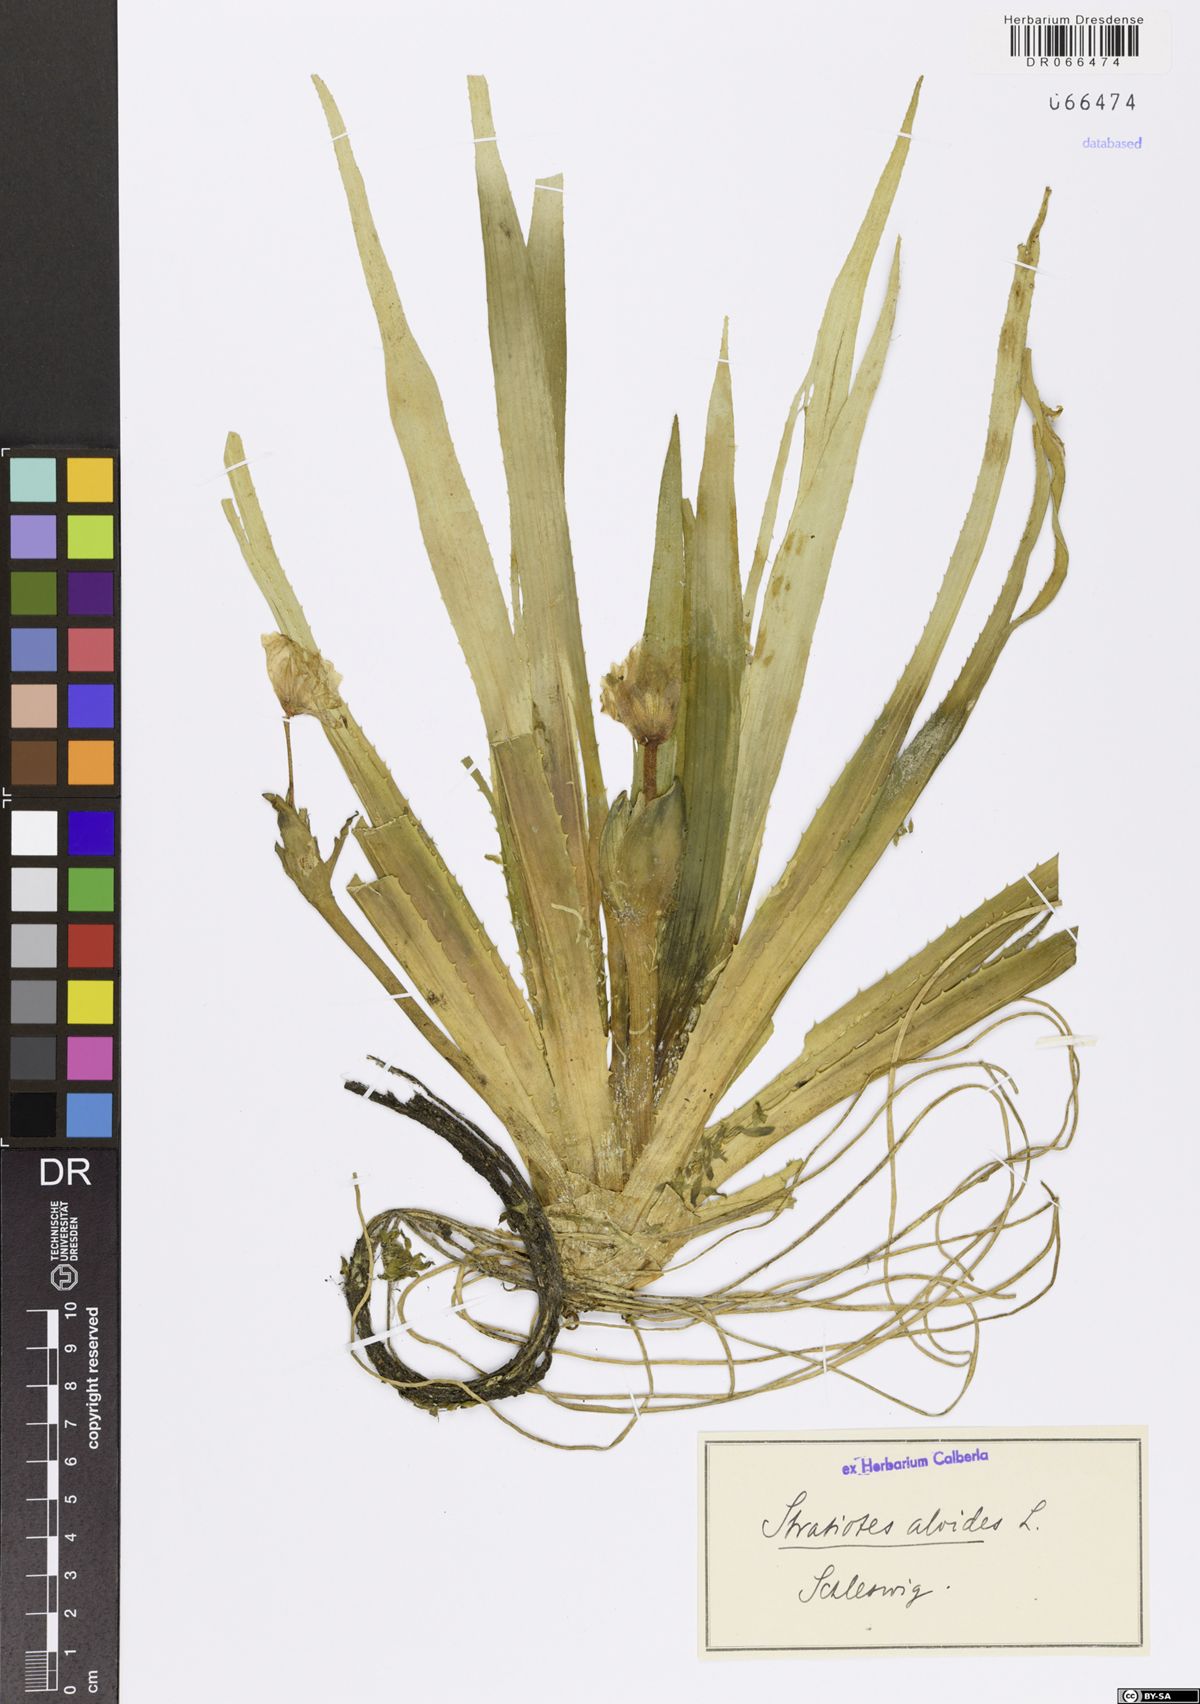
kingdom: Plantae
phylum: Tracheophyta
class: Liliopsida
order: Alismatales
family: Hydrocharitaceae
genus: Stratiotes
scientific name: Stratiotes aloides
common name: Water-soldier
